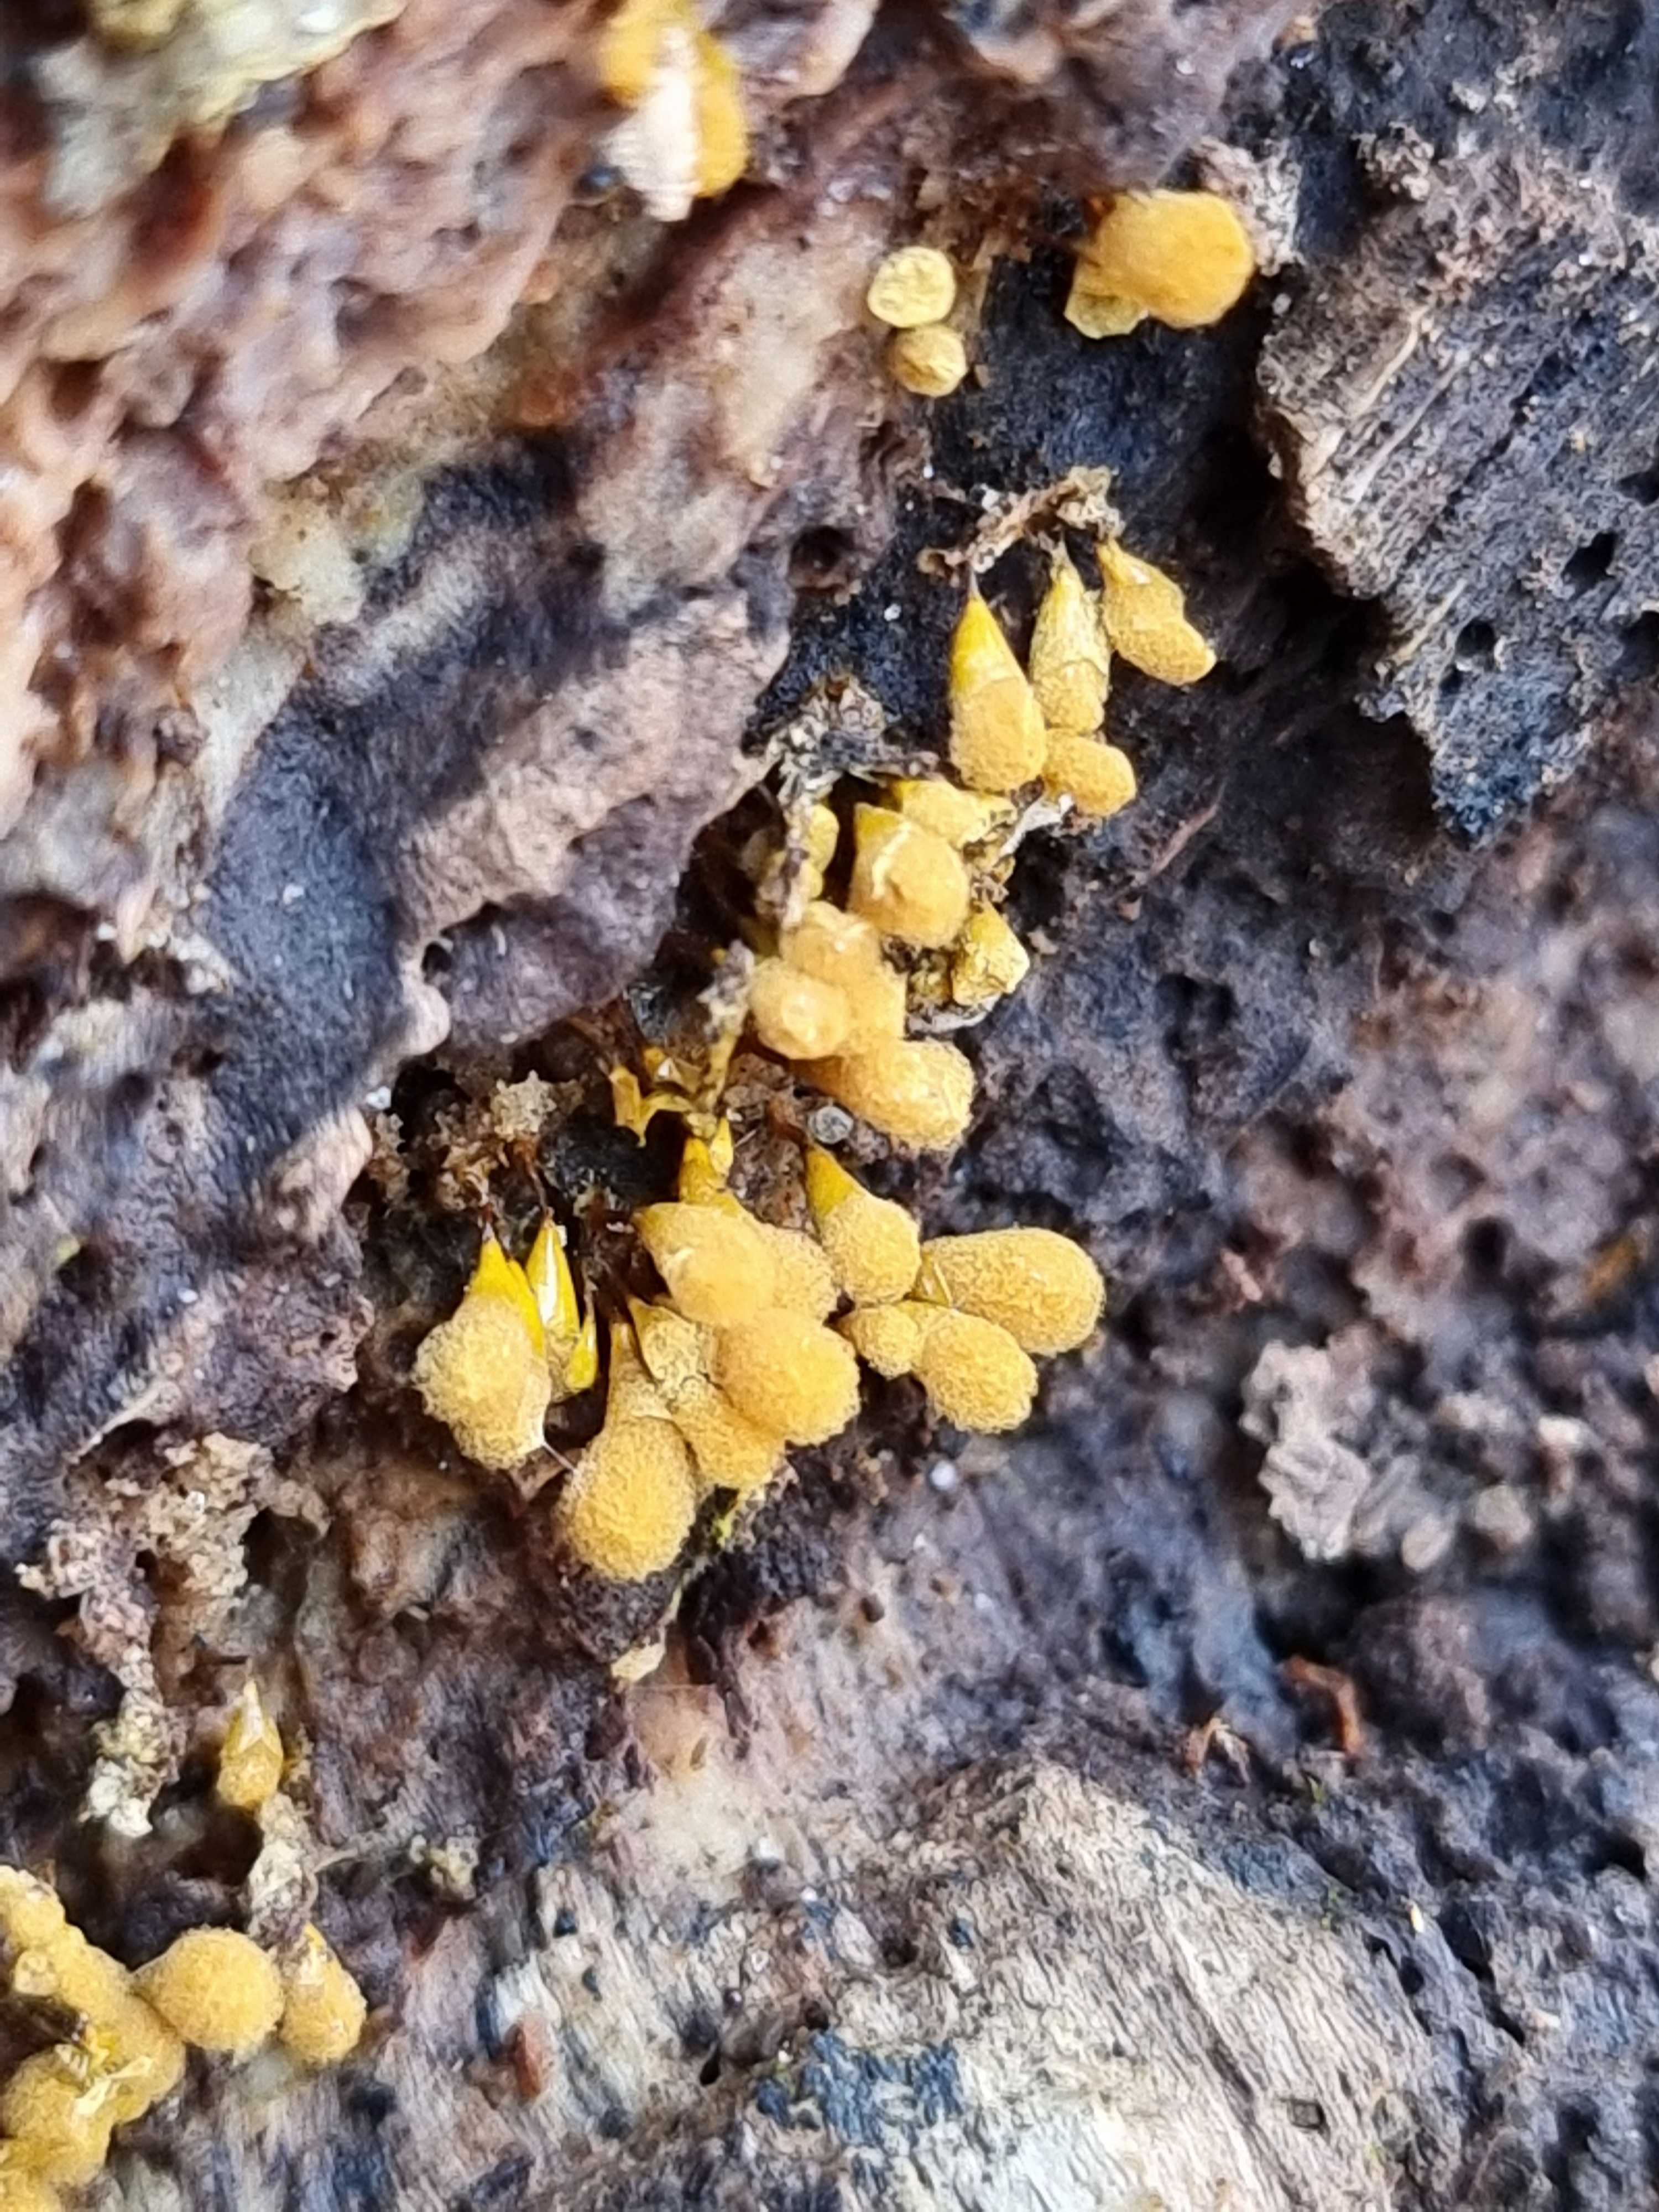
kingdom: Protozoa
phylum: Mycetozoa
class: Myxomycetes
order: Trichiales
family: Arcyriaceae
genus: Hemitrichia
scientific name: Hemitrichia clavata
